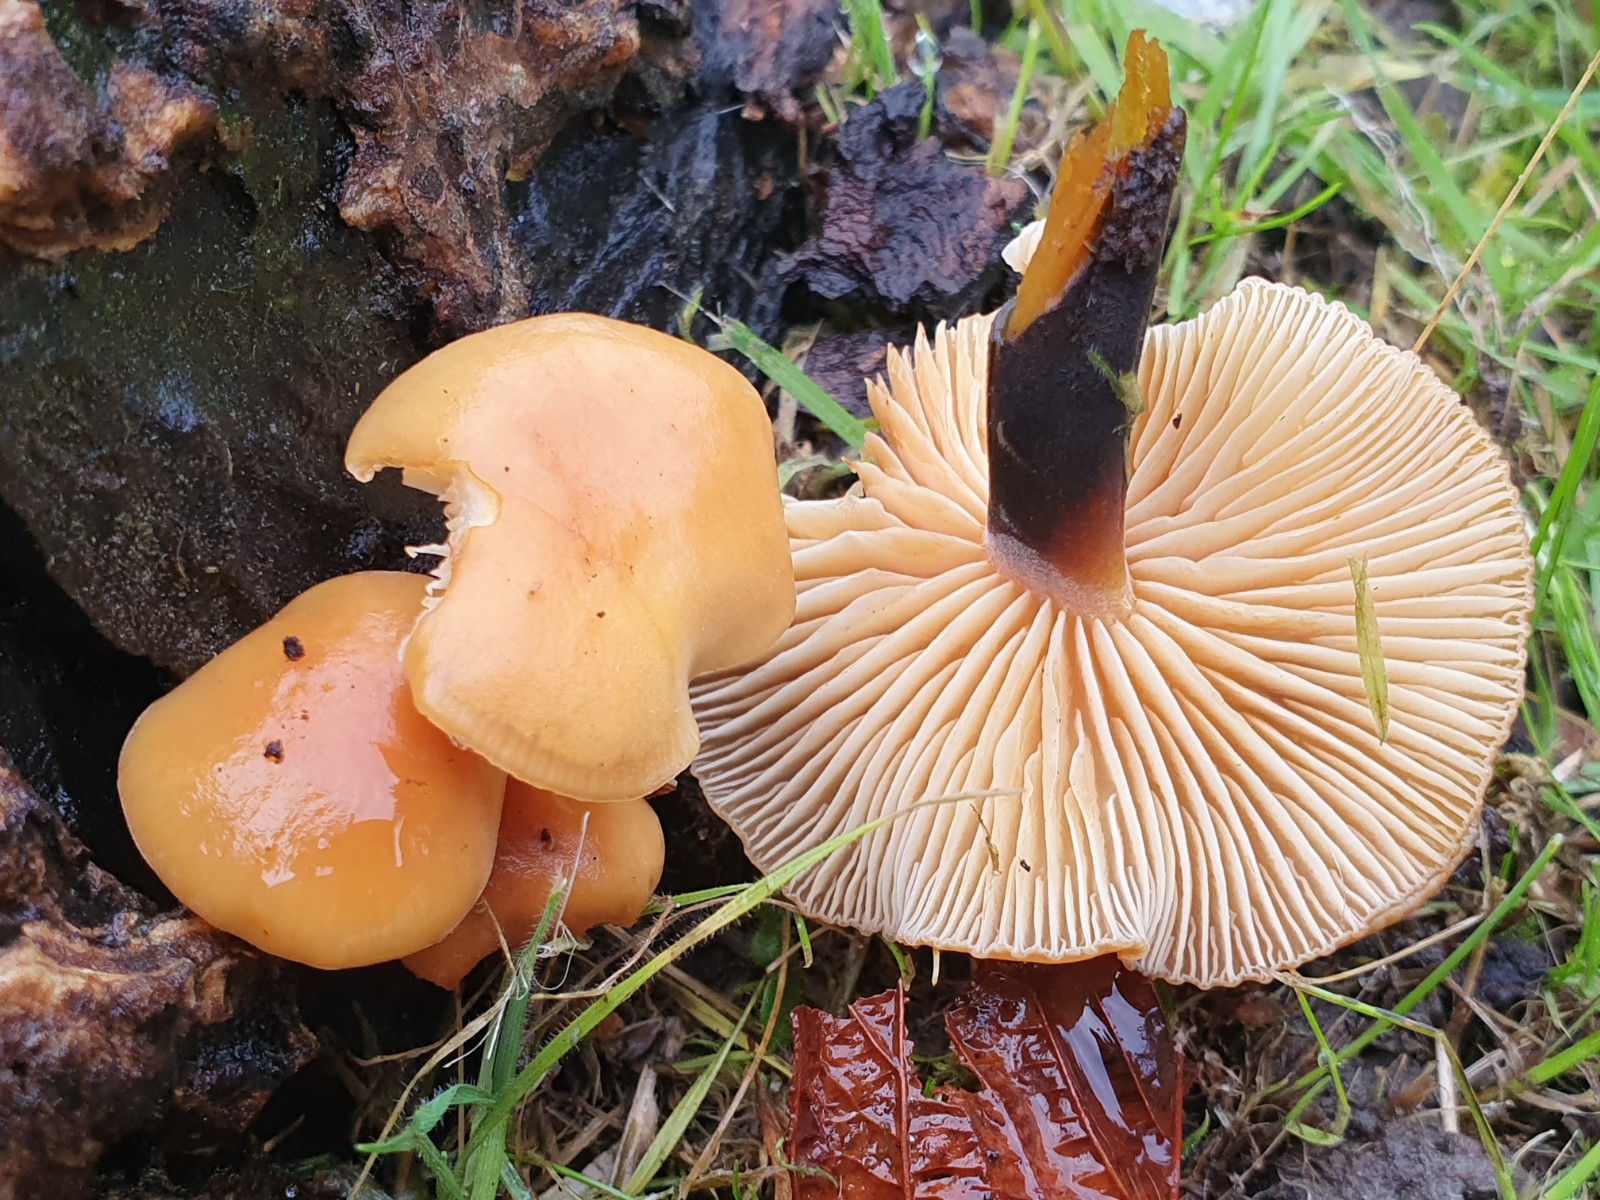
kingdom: Fungi
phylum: Basidiomycota
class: Agaricomycetes
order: Agaricales
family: Physalacriaceae
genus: Flammulina
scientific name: Flammulina velutipes
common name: gul fløjlsfod
